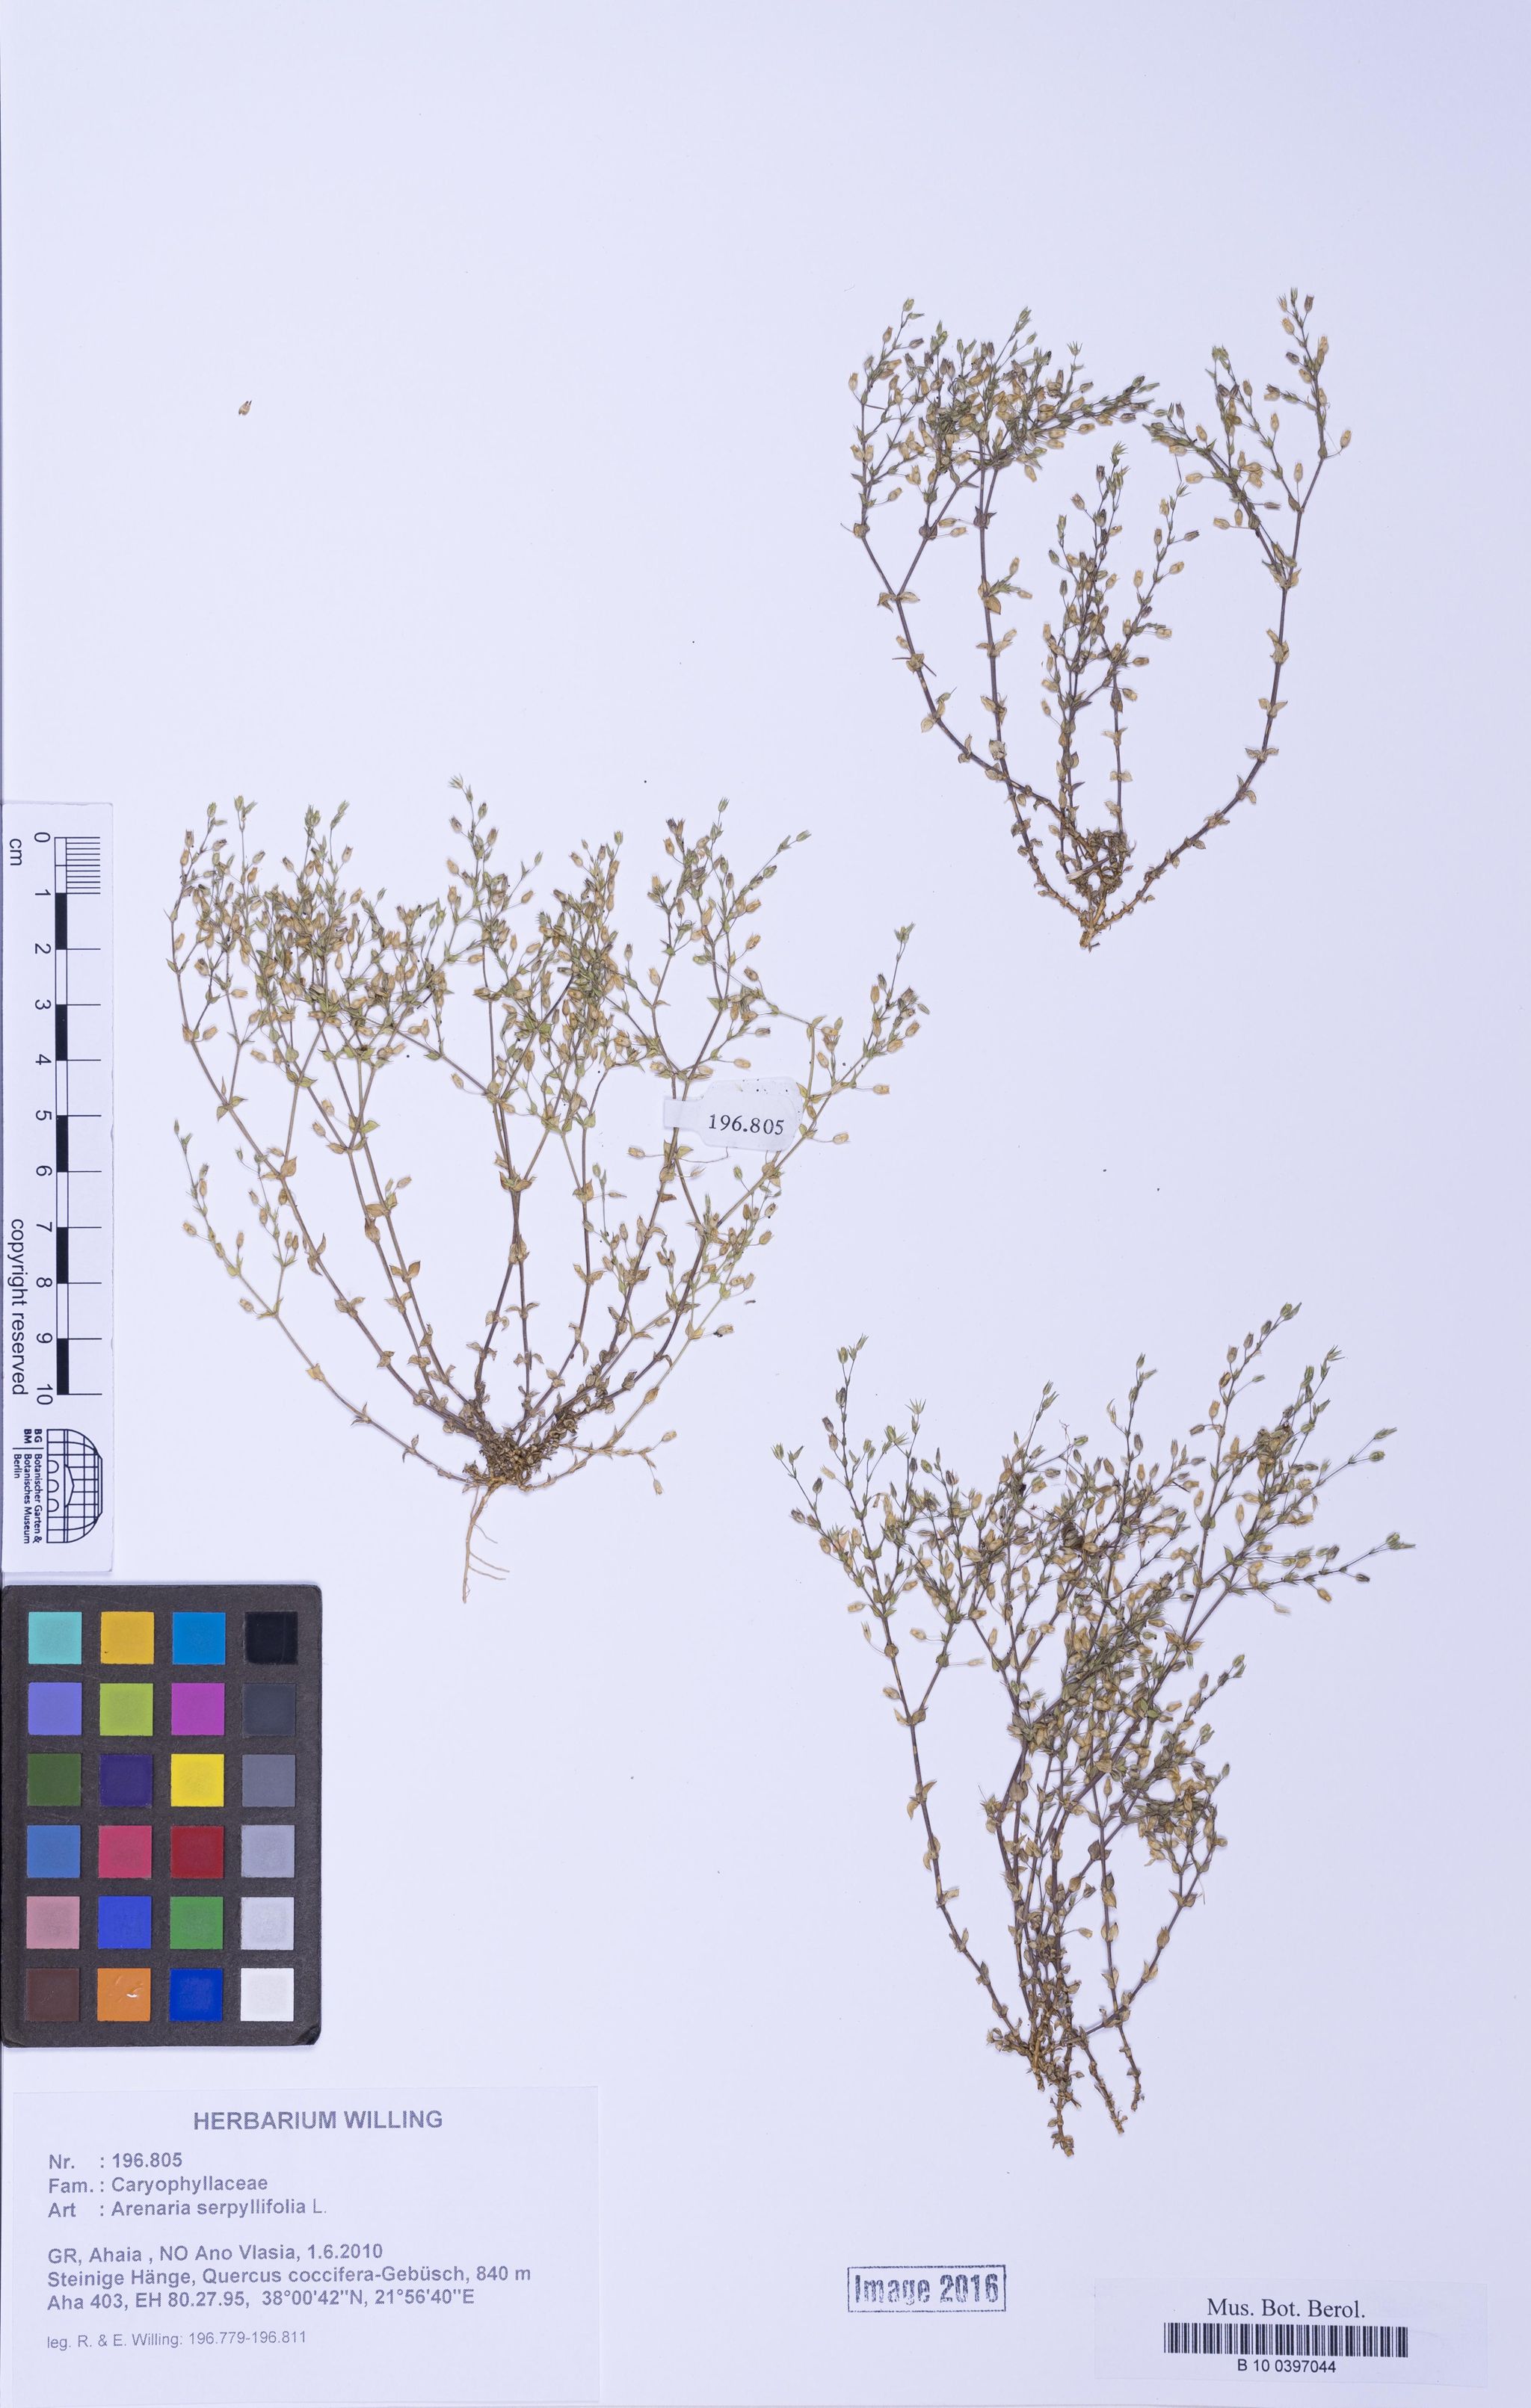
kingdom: Plantae
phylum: Tracheophyta
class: Magnoliopsida
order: Caryophyllales
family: Caryophyllaceae
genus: Arenaria
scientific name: Arenaria serpyllifolia
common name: Thyme-leaved sandwort
